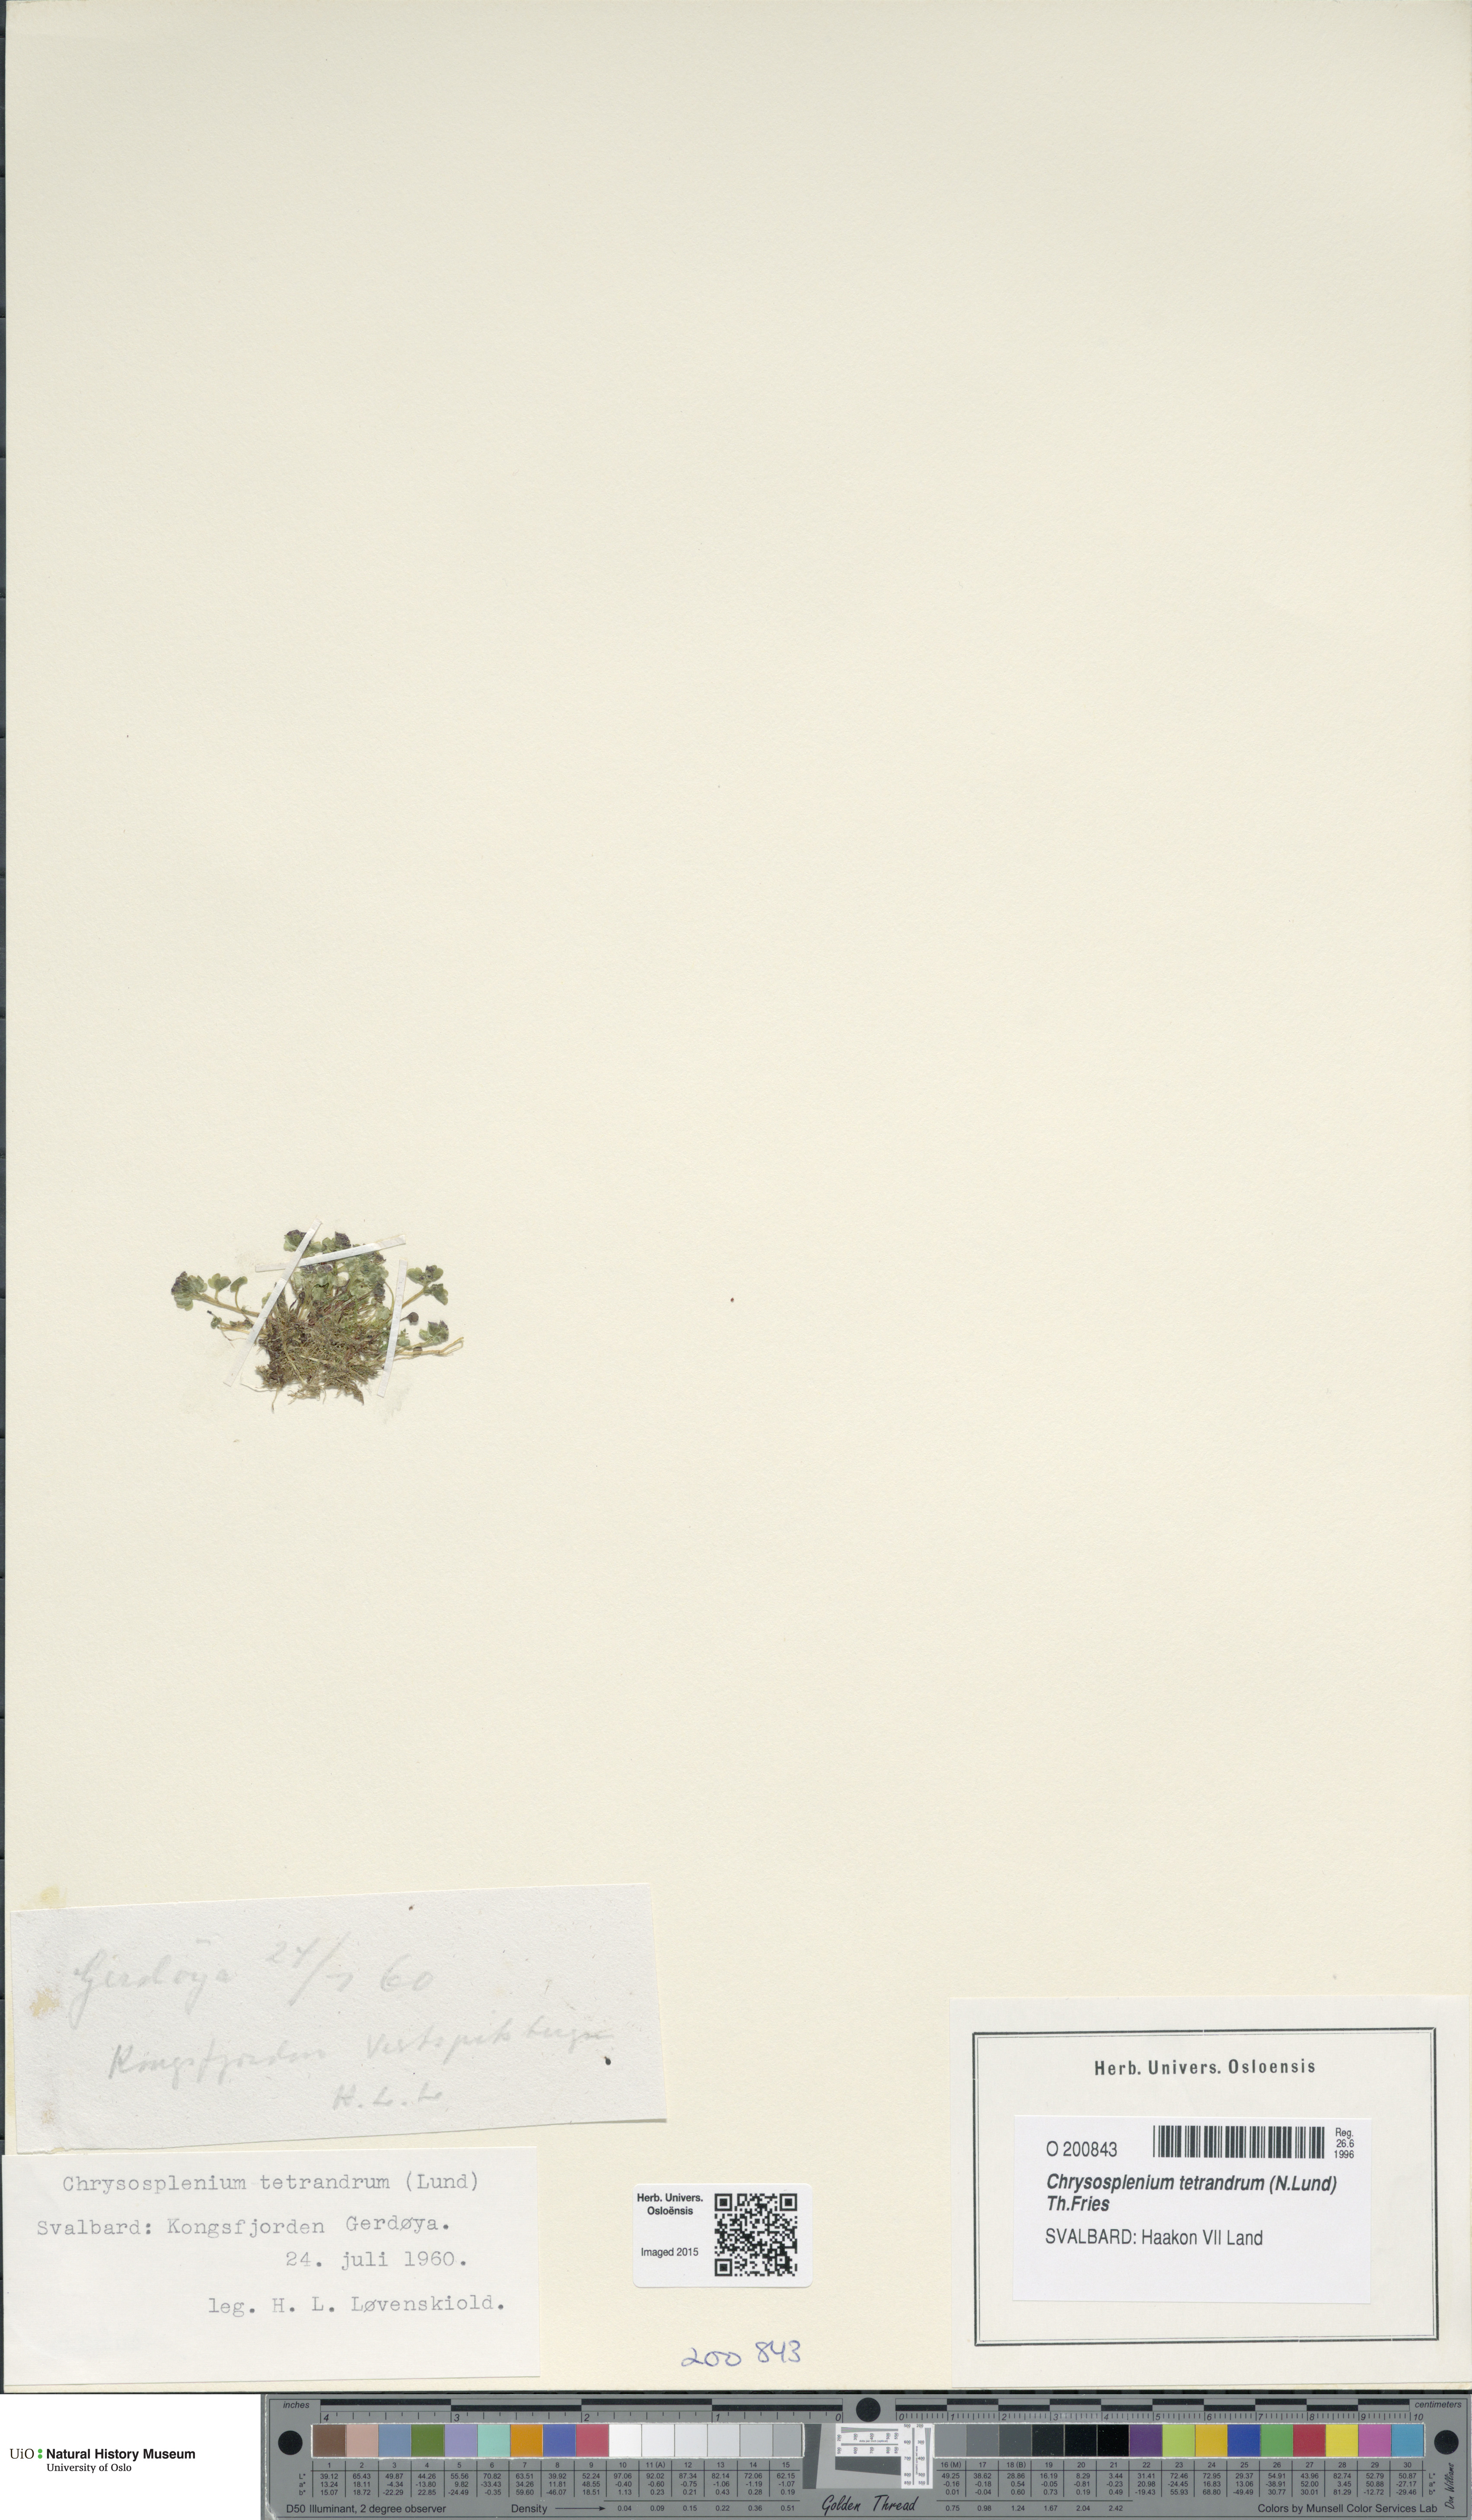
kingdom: Plantae
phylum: Tracheophyta
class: Magnoliopsida
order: Saxifragales
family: Saxifragaceae
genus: Chrysosplenium
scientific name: Chrysosplenium tetrandrum
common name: Green saxifrage
